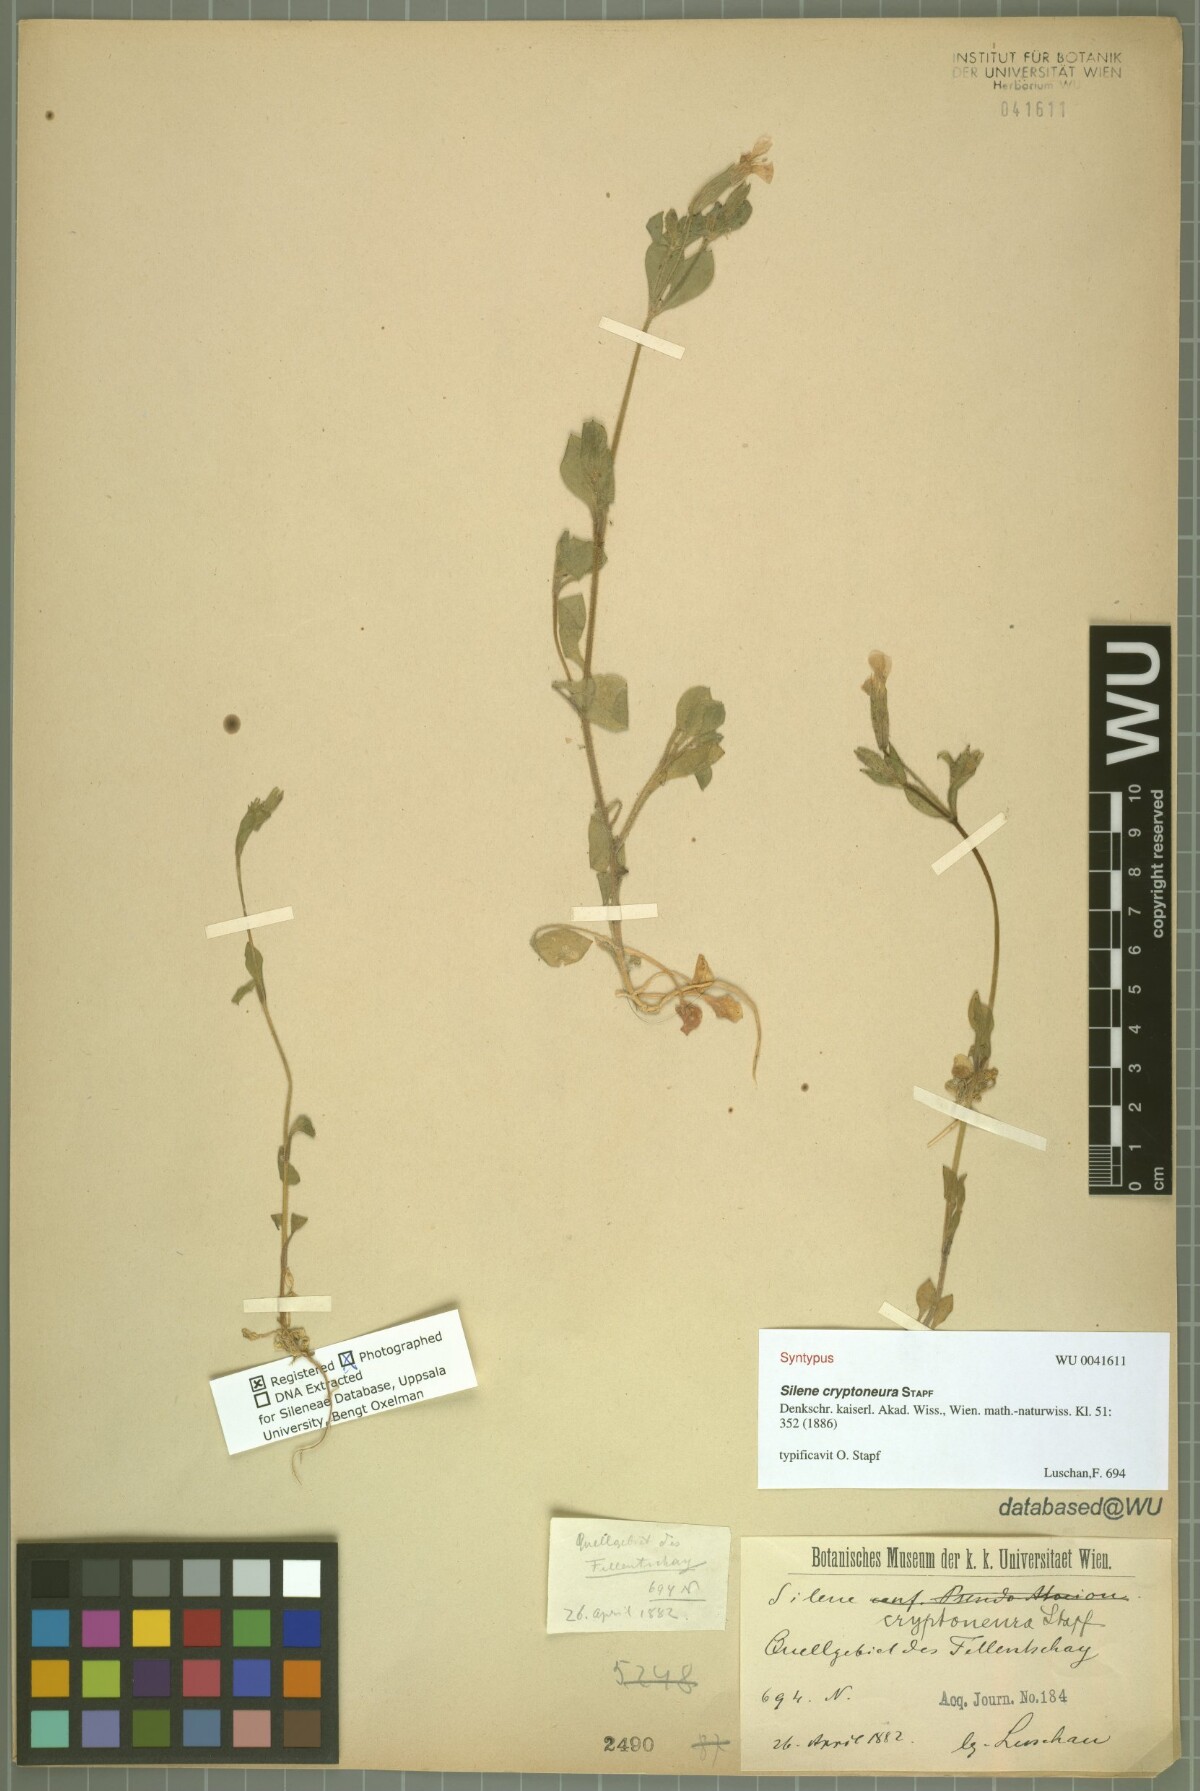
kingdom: Plantae
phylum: Tracheophyta
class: Magnoliopsida
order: Caryophyllales
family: Caryophyllaceae
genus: Silene
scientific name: Silene cryptoneura
